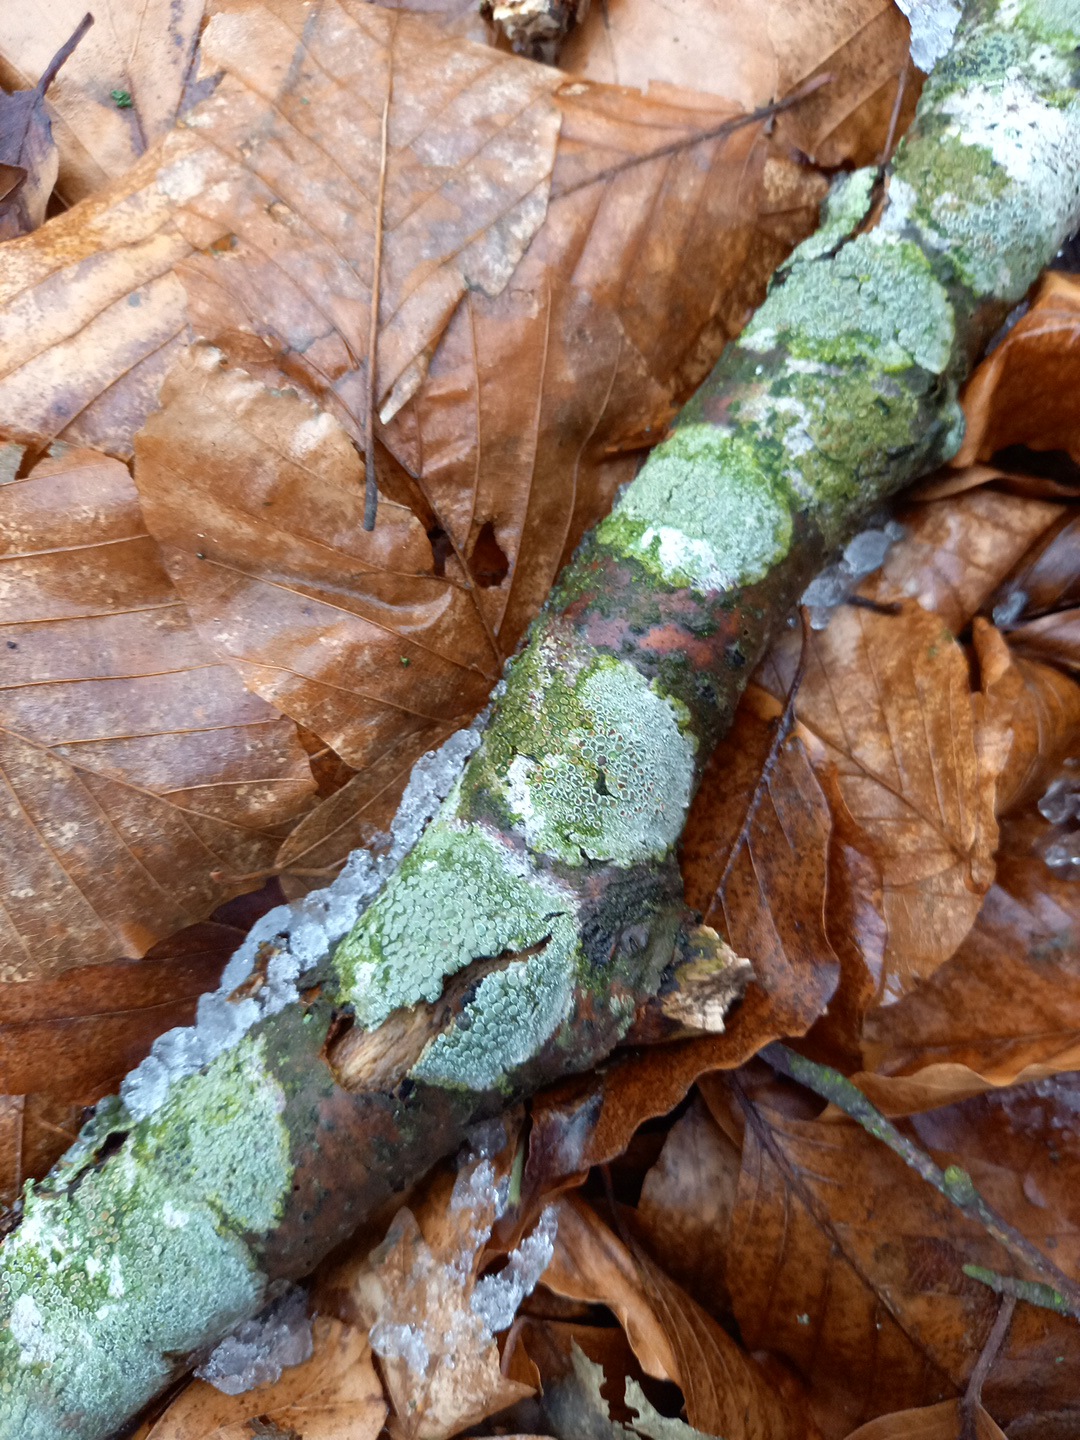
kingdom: Fungi
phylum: Ascomycota
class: Lecanoromycetes
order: Lecanorales
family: Lecanoraceae
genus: Lecanora
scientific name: Lecanora chlarotera
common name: brun kantskivelav
